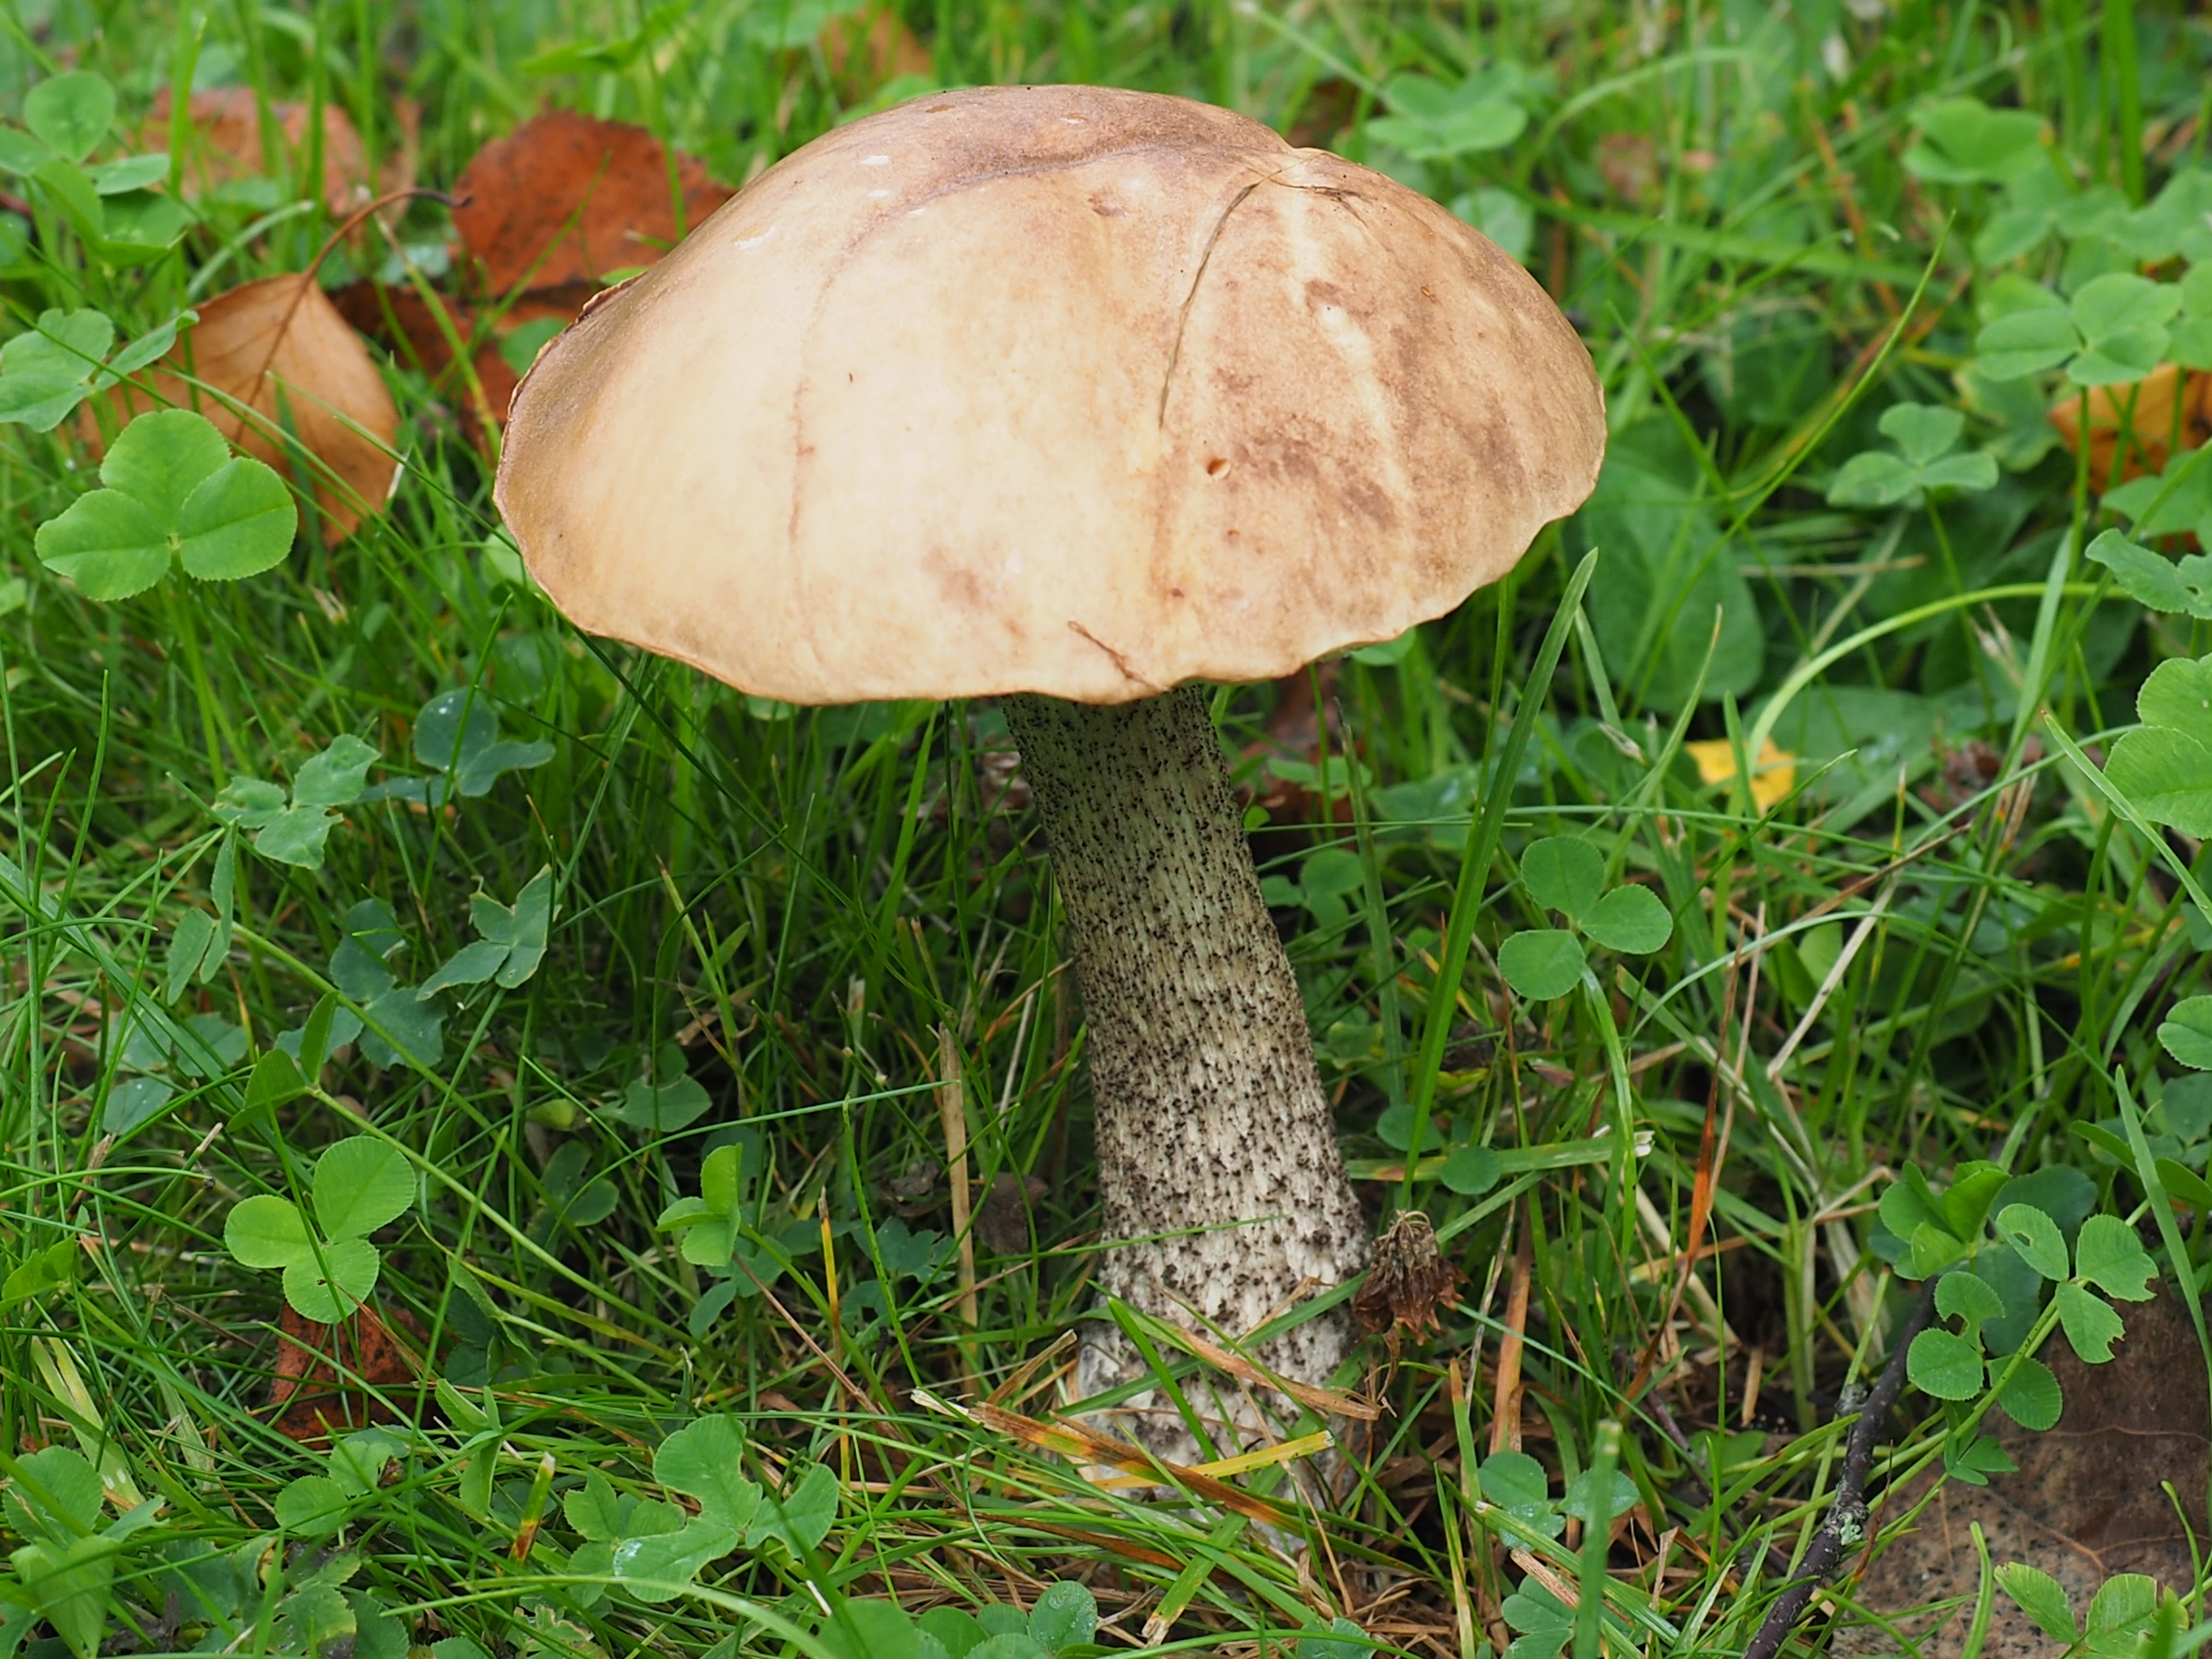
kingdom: Fungi
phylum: Basidiomycota
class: Agaricomycetes
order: Boletales
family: Boletaceae
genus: Leccinum
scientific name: Leccinum versipelle
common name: Orange birch bolete
